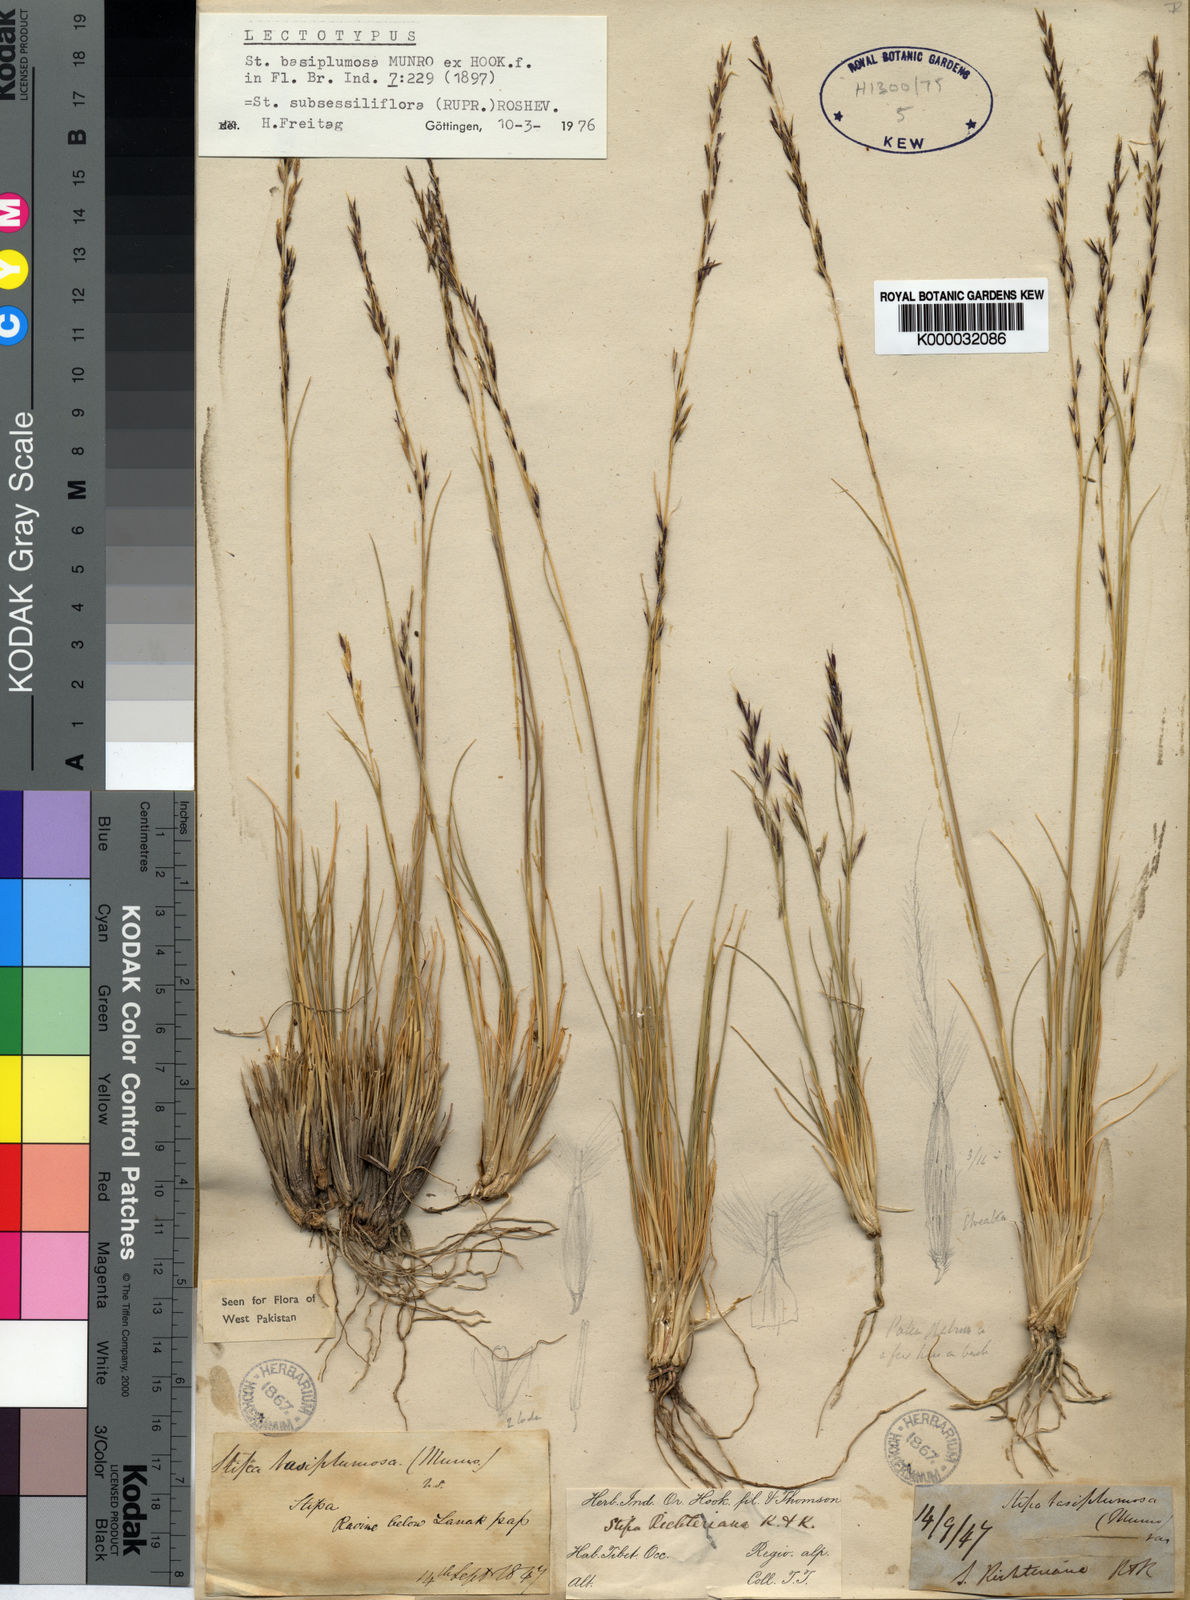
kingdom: Plantae
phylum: Tracheophyta
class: Liliopsida
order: Poales
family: Poaceae
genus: Stipa
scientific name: Stipa subsessiliflora
